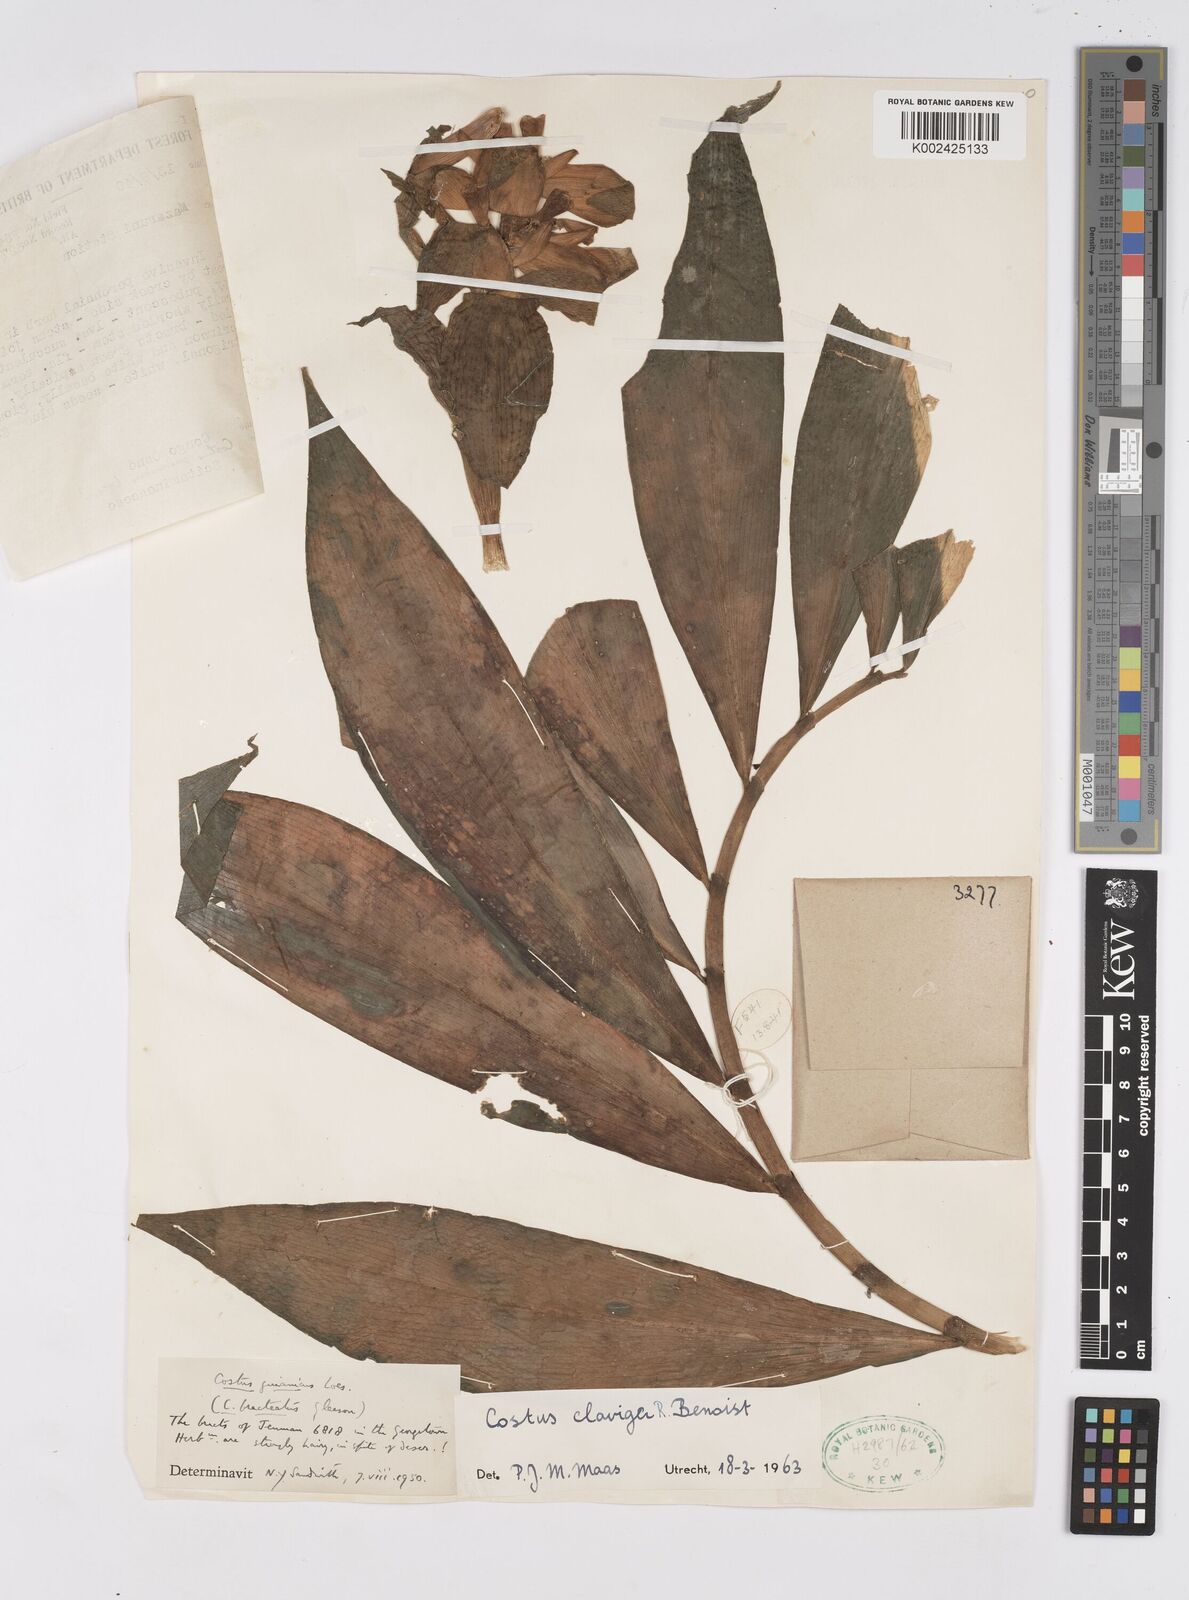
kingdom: Plantae
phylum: Tracheophyta
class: Liliopsida
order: Zingiberales
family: Costaceae
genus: Costus
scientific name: Costus claviger
